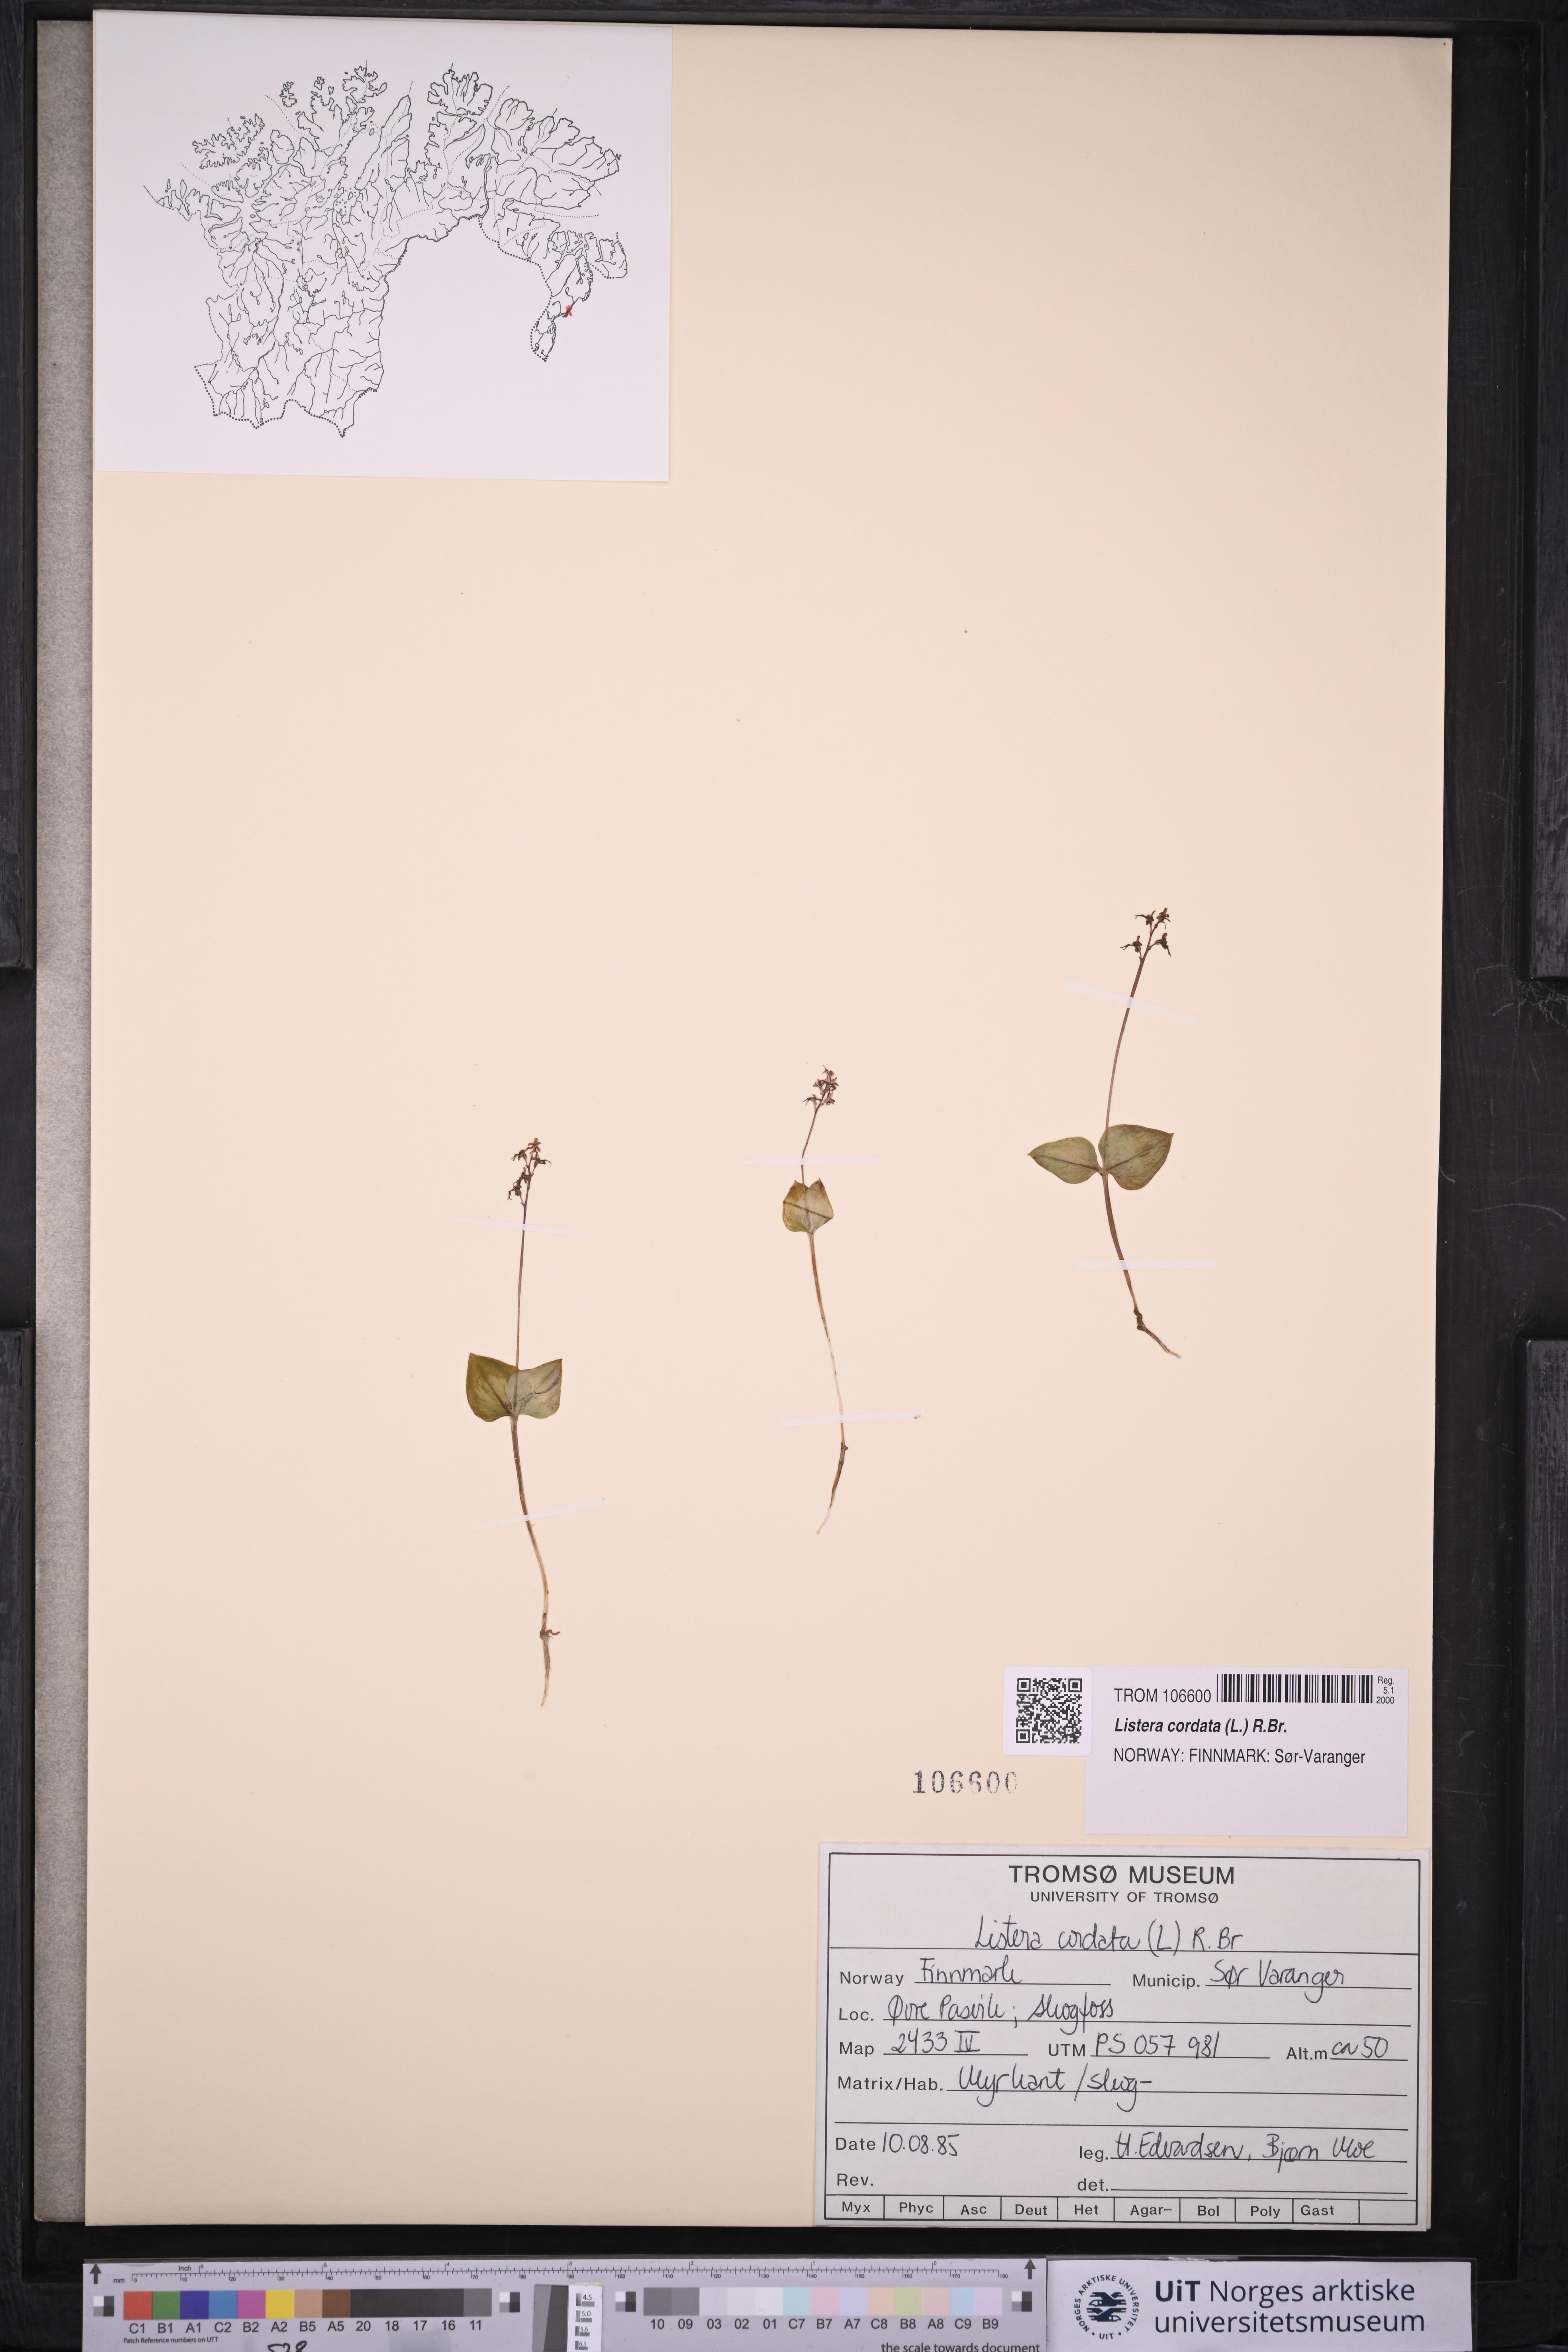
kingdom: Plantae
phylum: Tracheophyta
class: Liliopsida
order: Asparagales
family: Orchidaceae
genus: Neottia
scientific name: Neottia cordata
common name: Lesser twayblade
